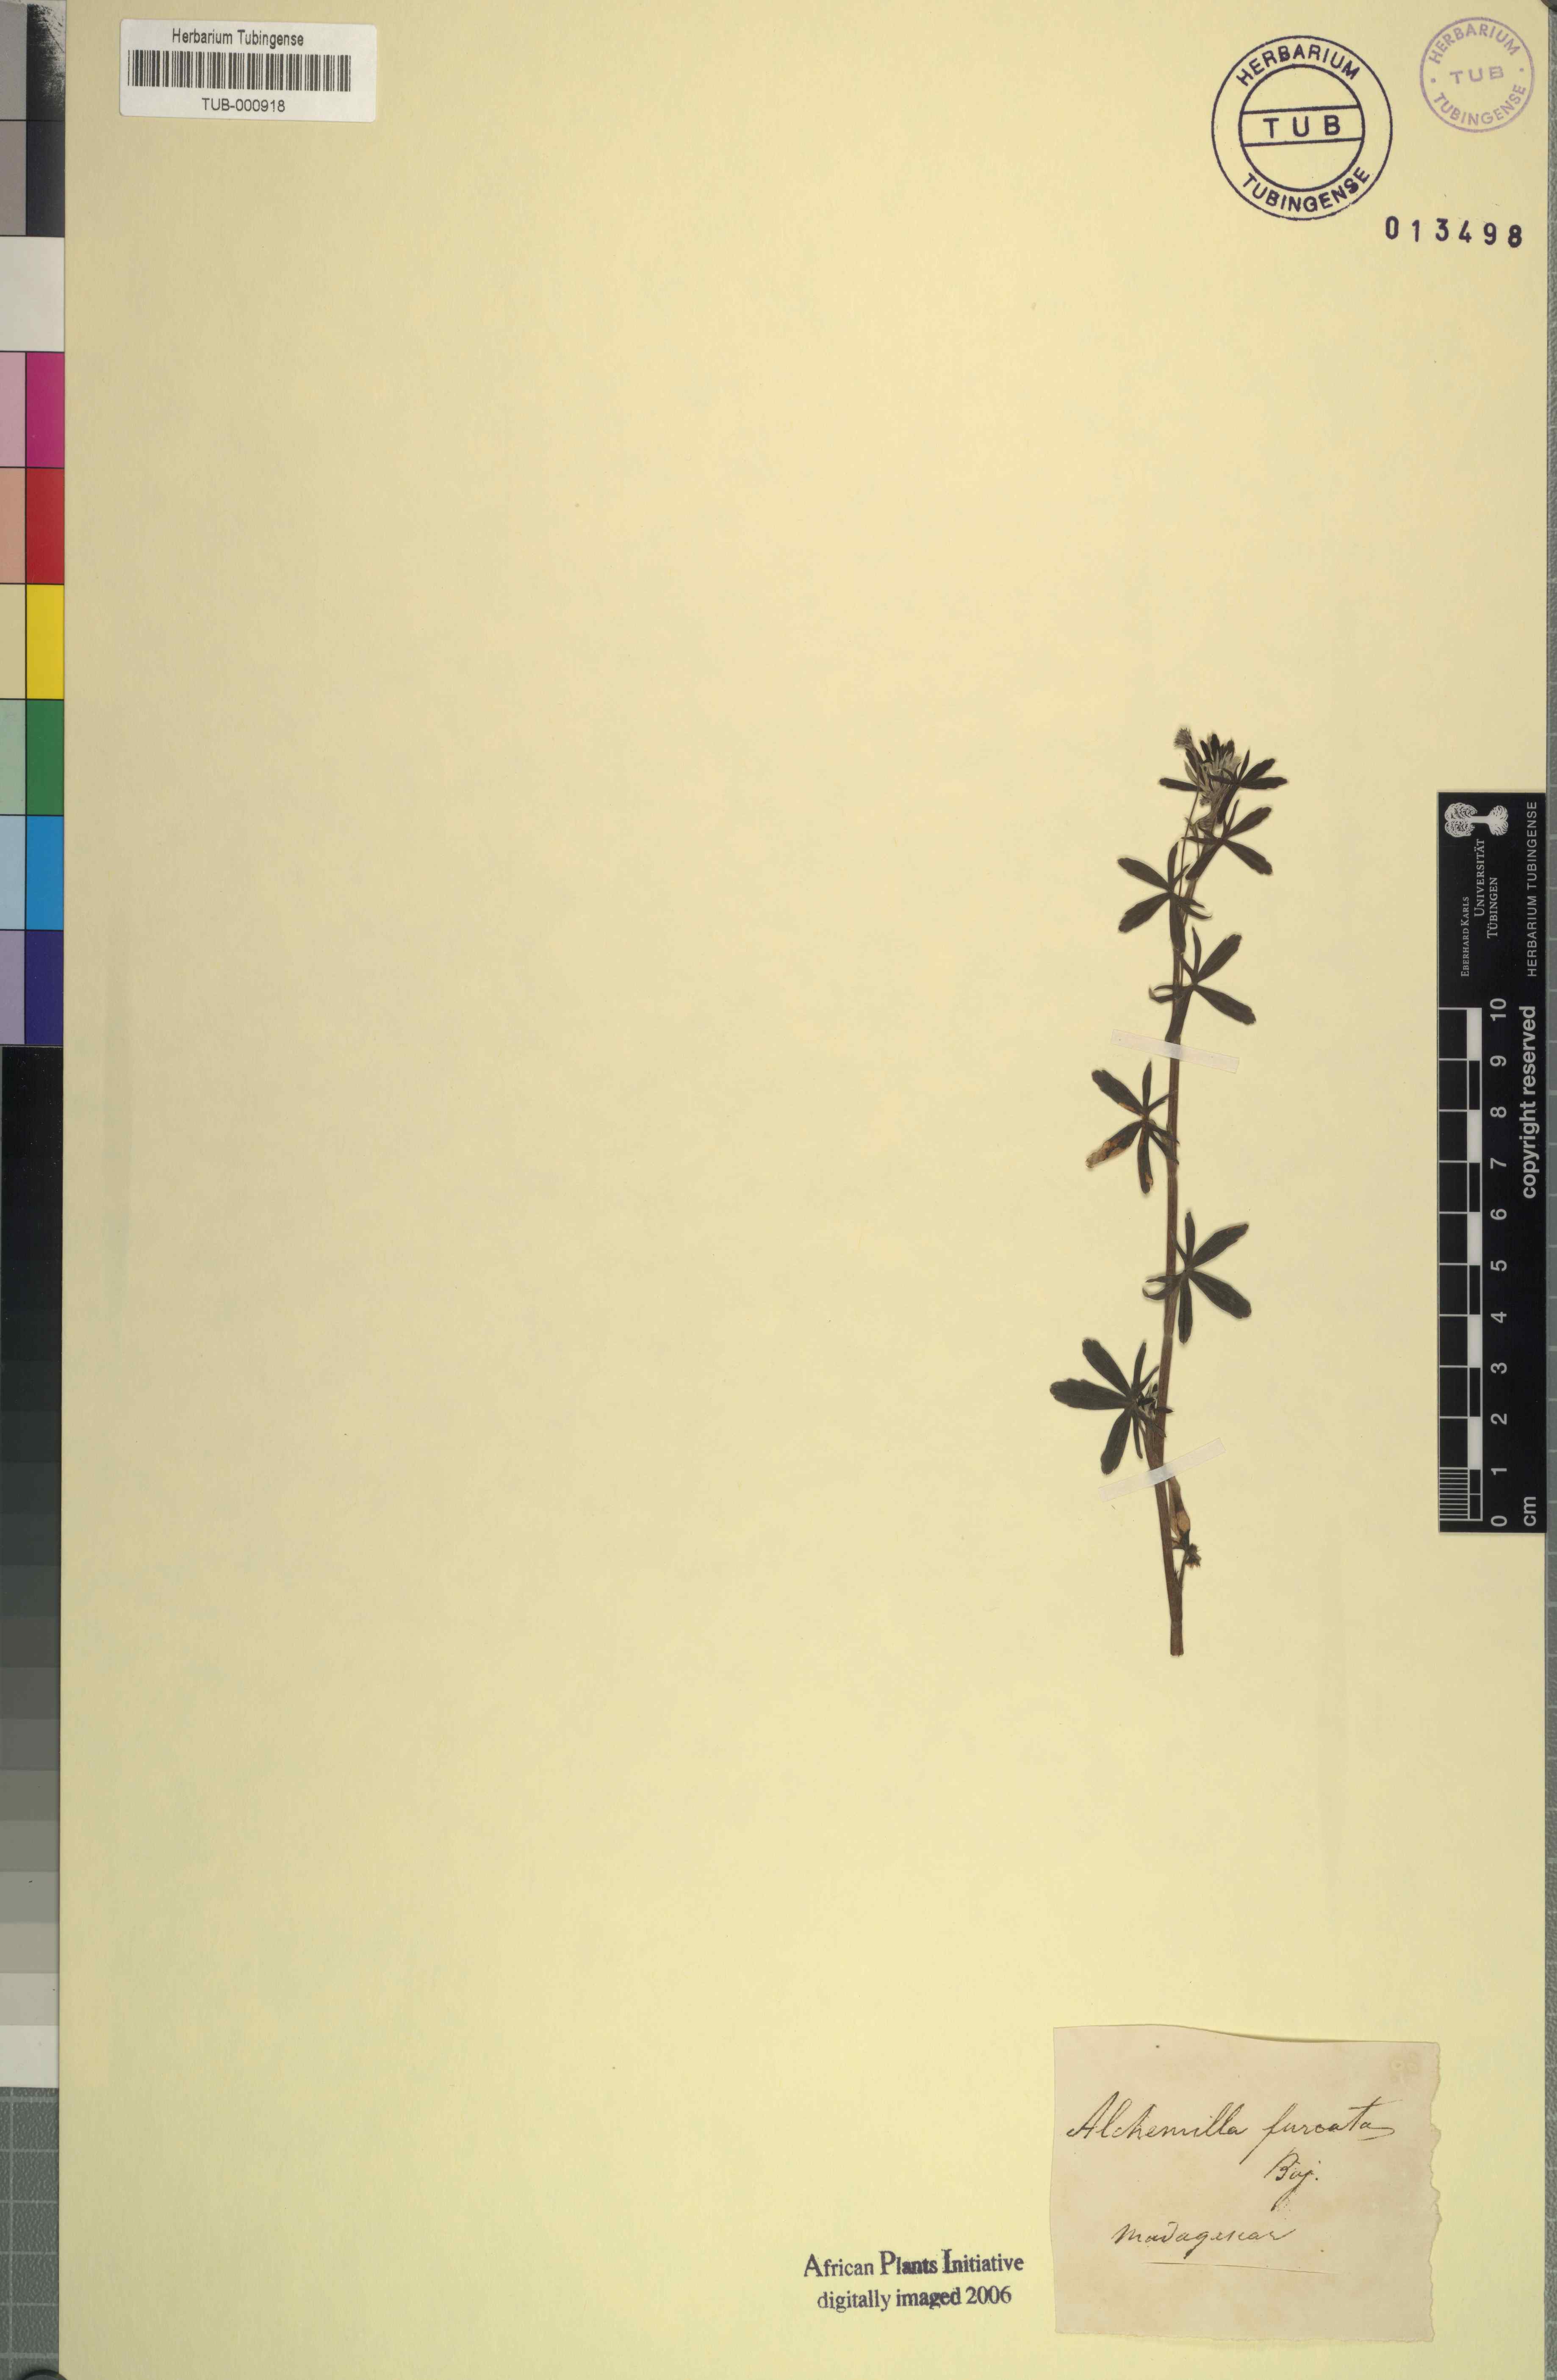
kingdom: Plantae
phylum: Tracheophyta
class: Magnoliopsida
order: Rosales
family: Rosaceae
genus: Alchemilla
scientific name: Alchemilla
